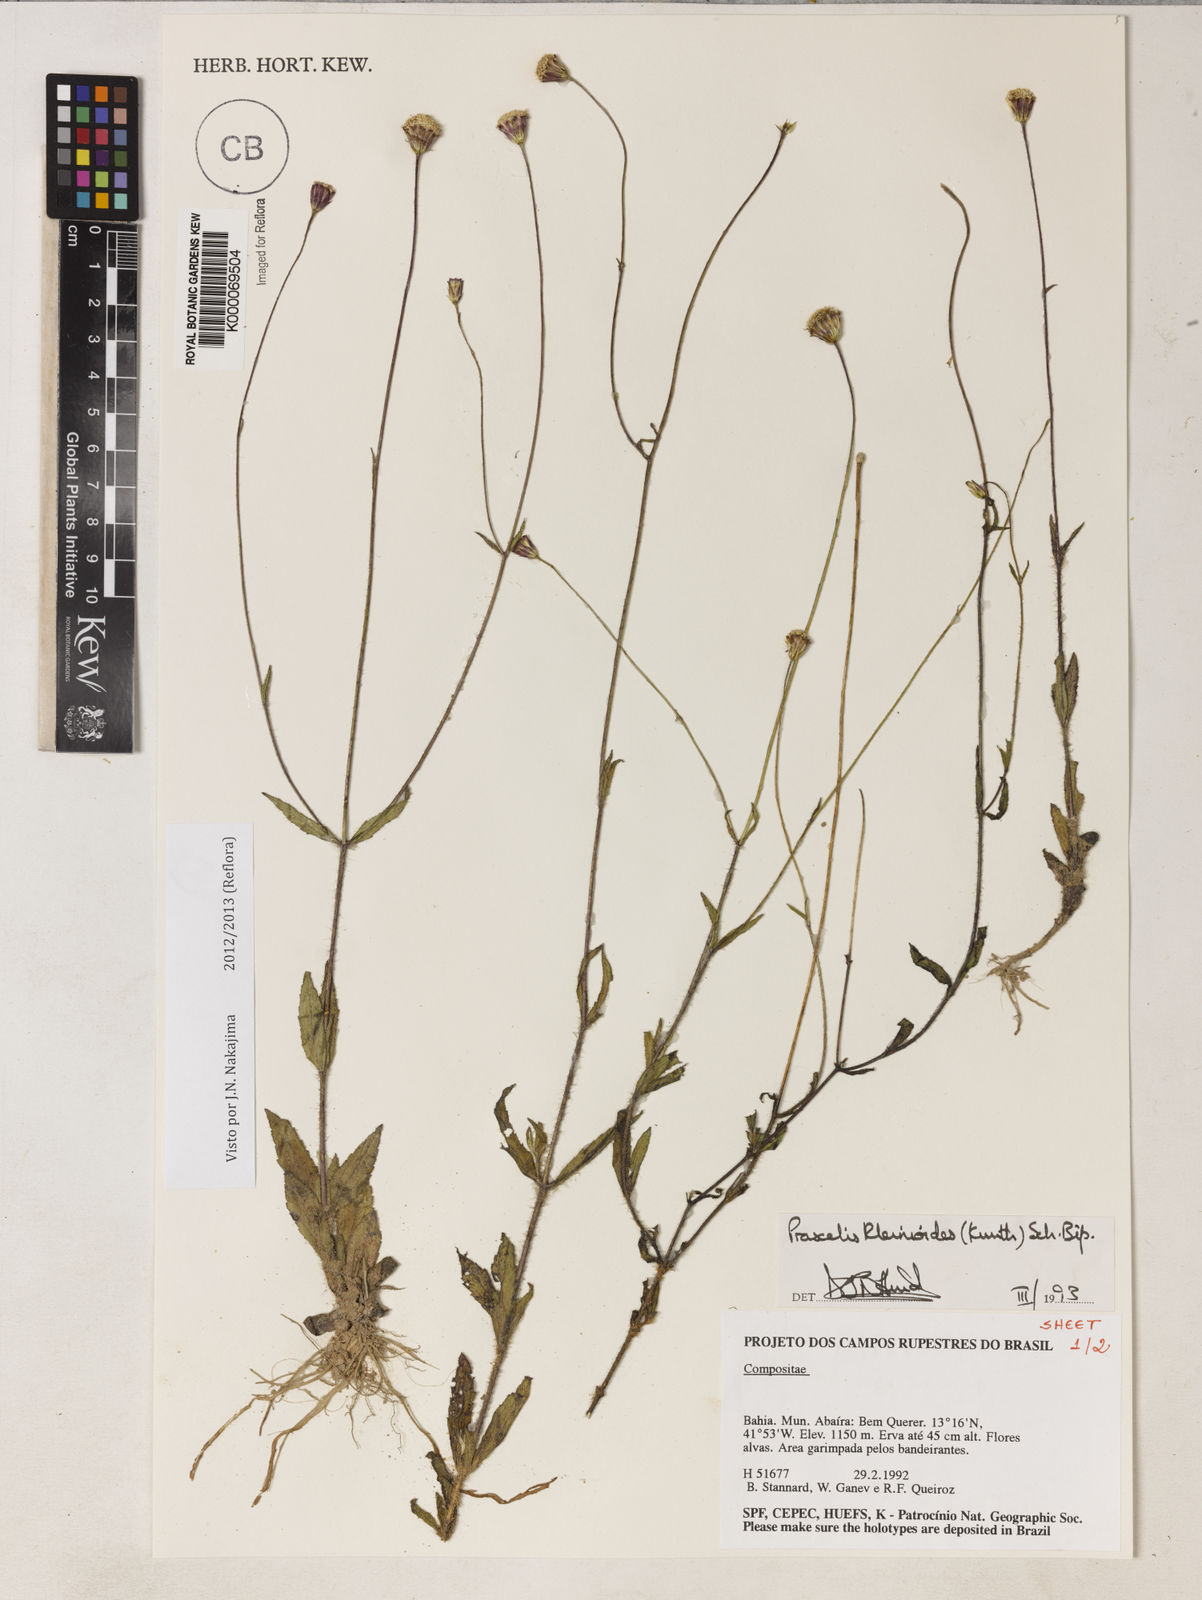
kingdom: Plantae
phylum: Tracheophyta
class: Magnoliopsida
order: Asterales
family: Asteraceae
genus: Praxelis
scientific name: Praxelis kleinioides
